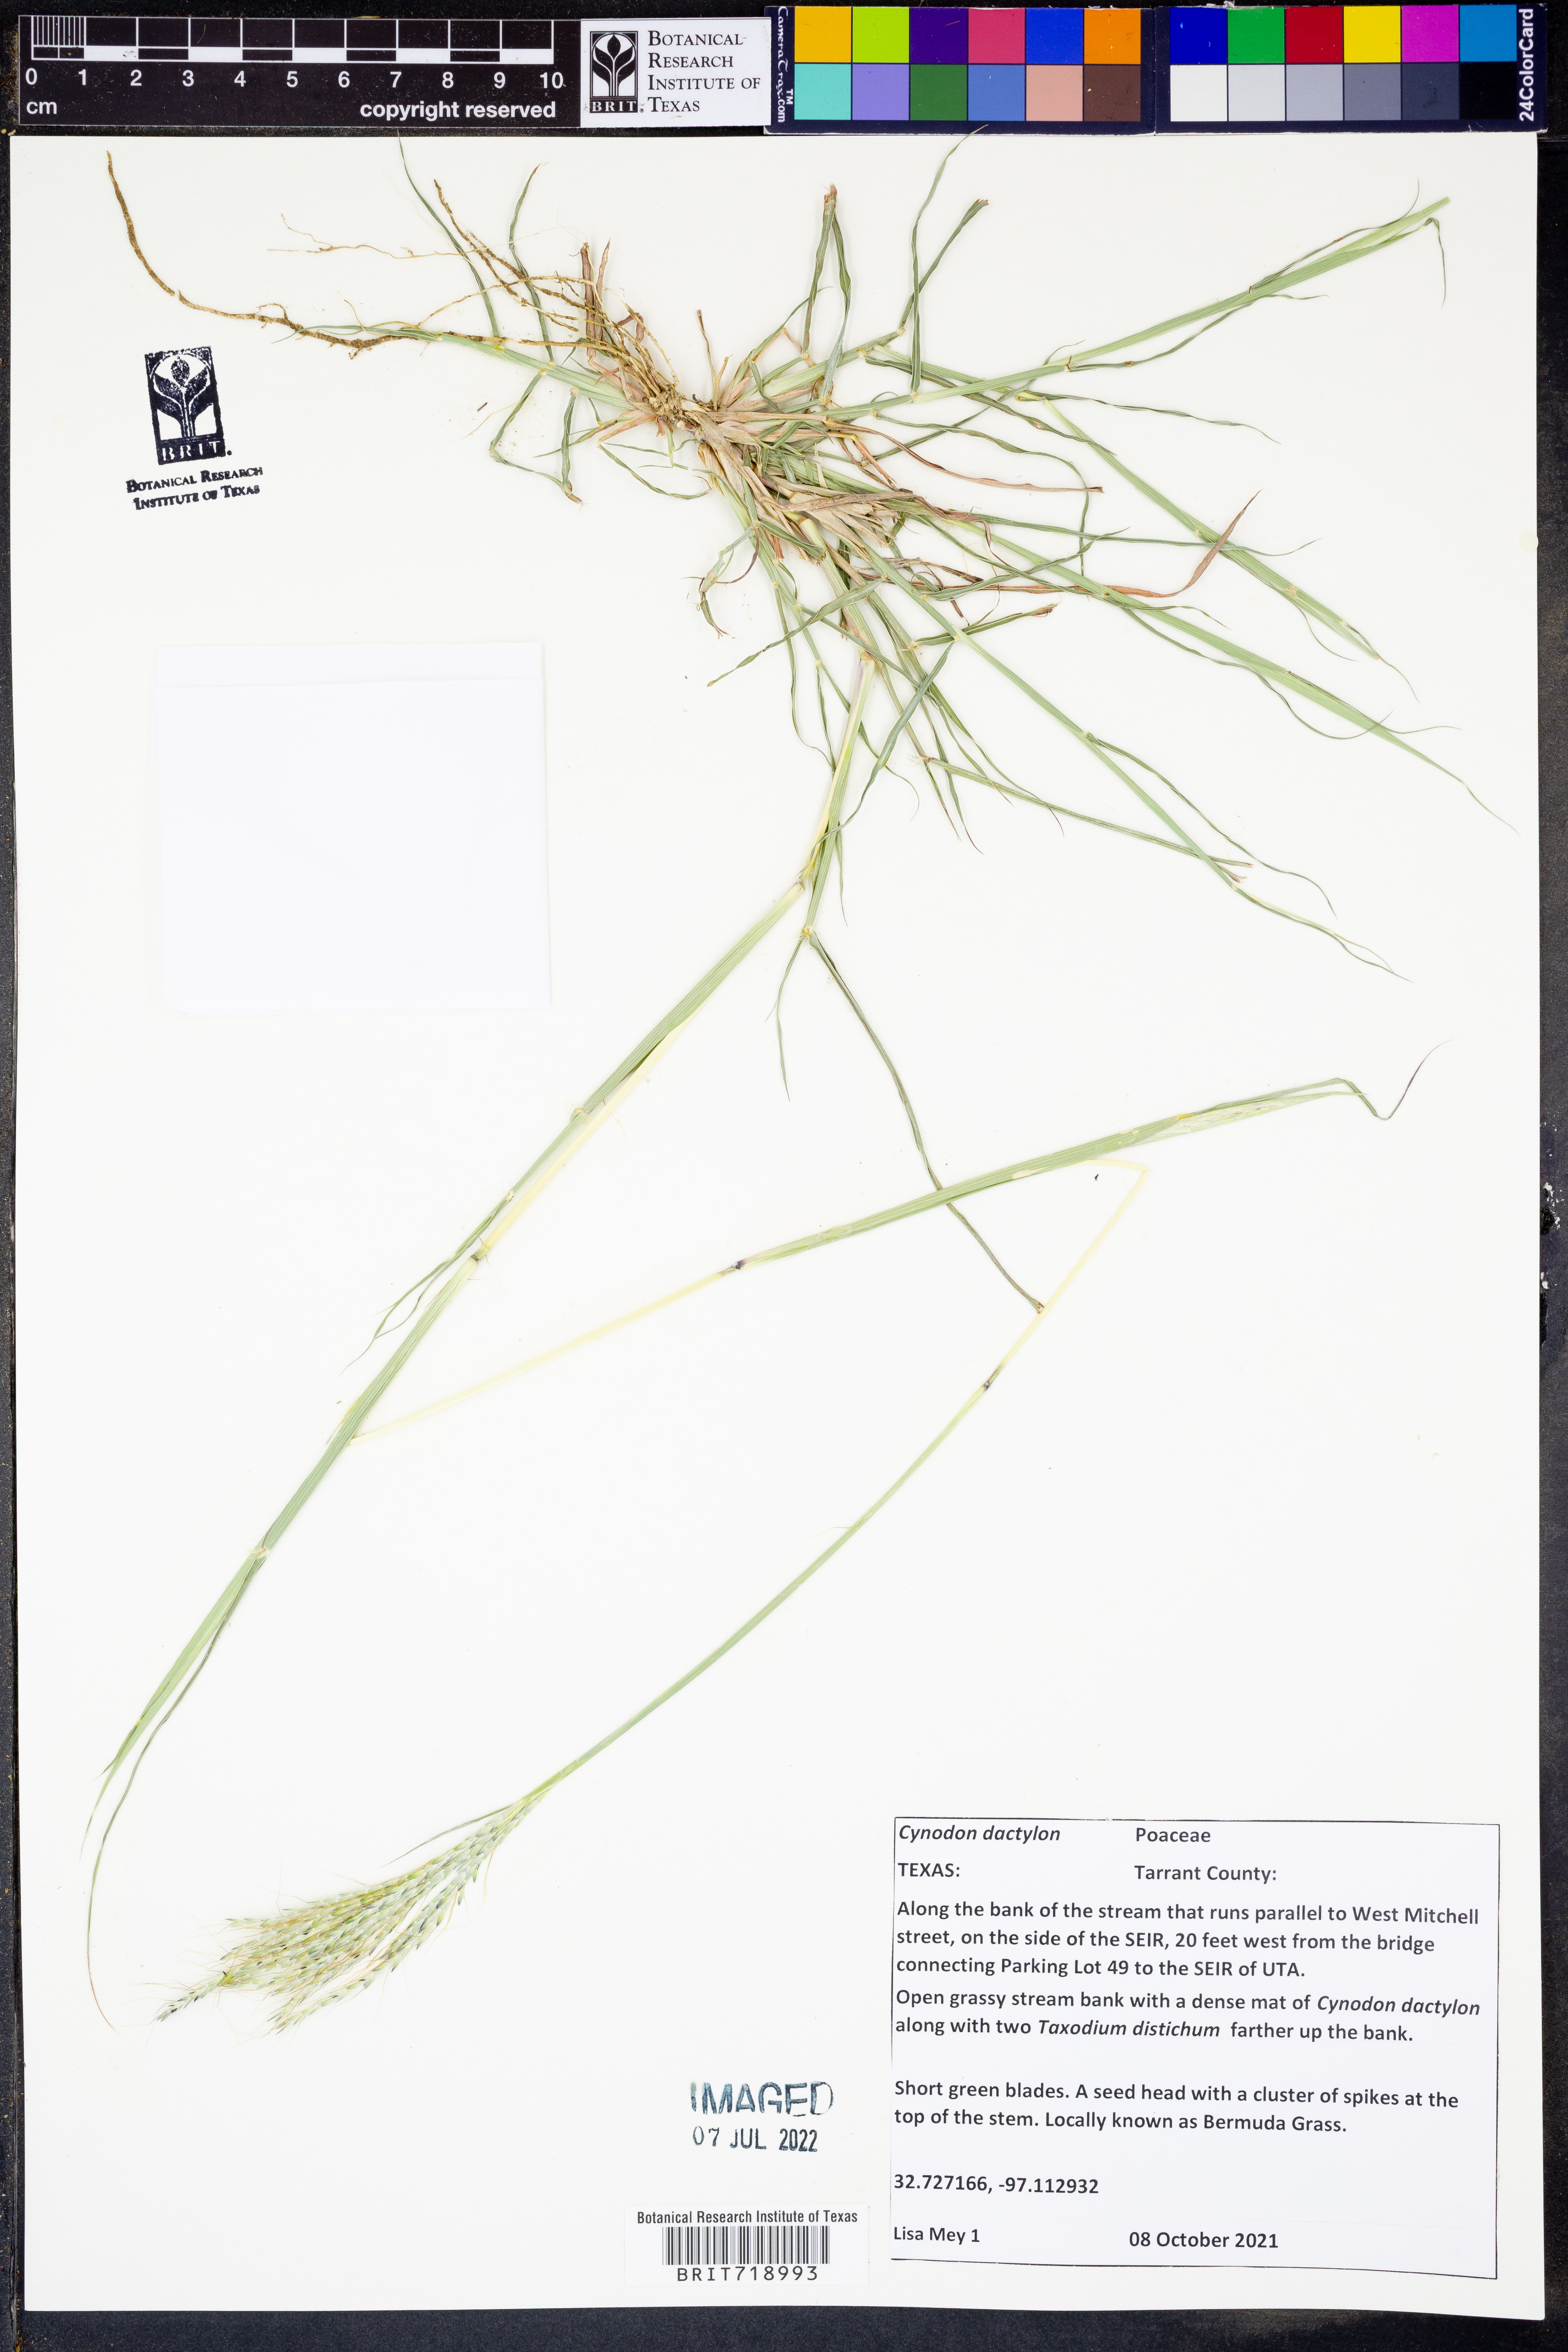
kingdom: Plantae
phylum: Tracheophyta
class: Liliopsida
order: Poales
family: Poaceae
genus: Cynodon
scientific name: Cynodon dactylon
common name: Bermuda grass
